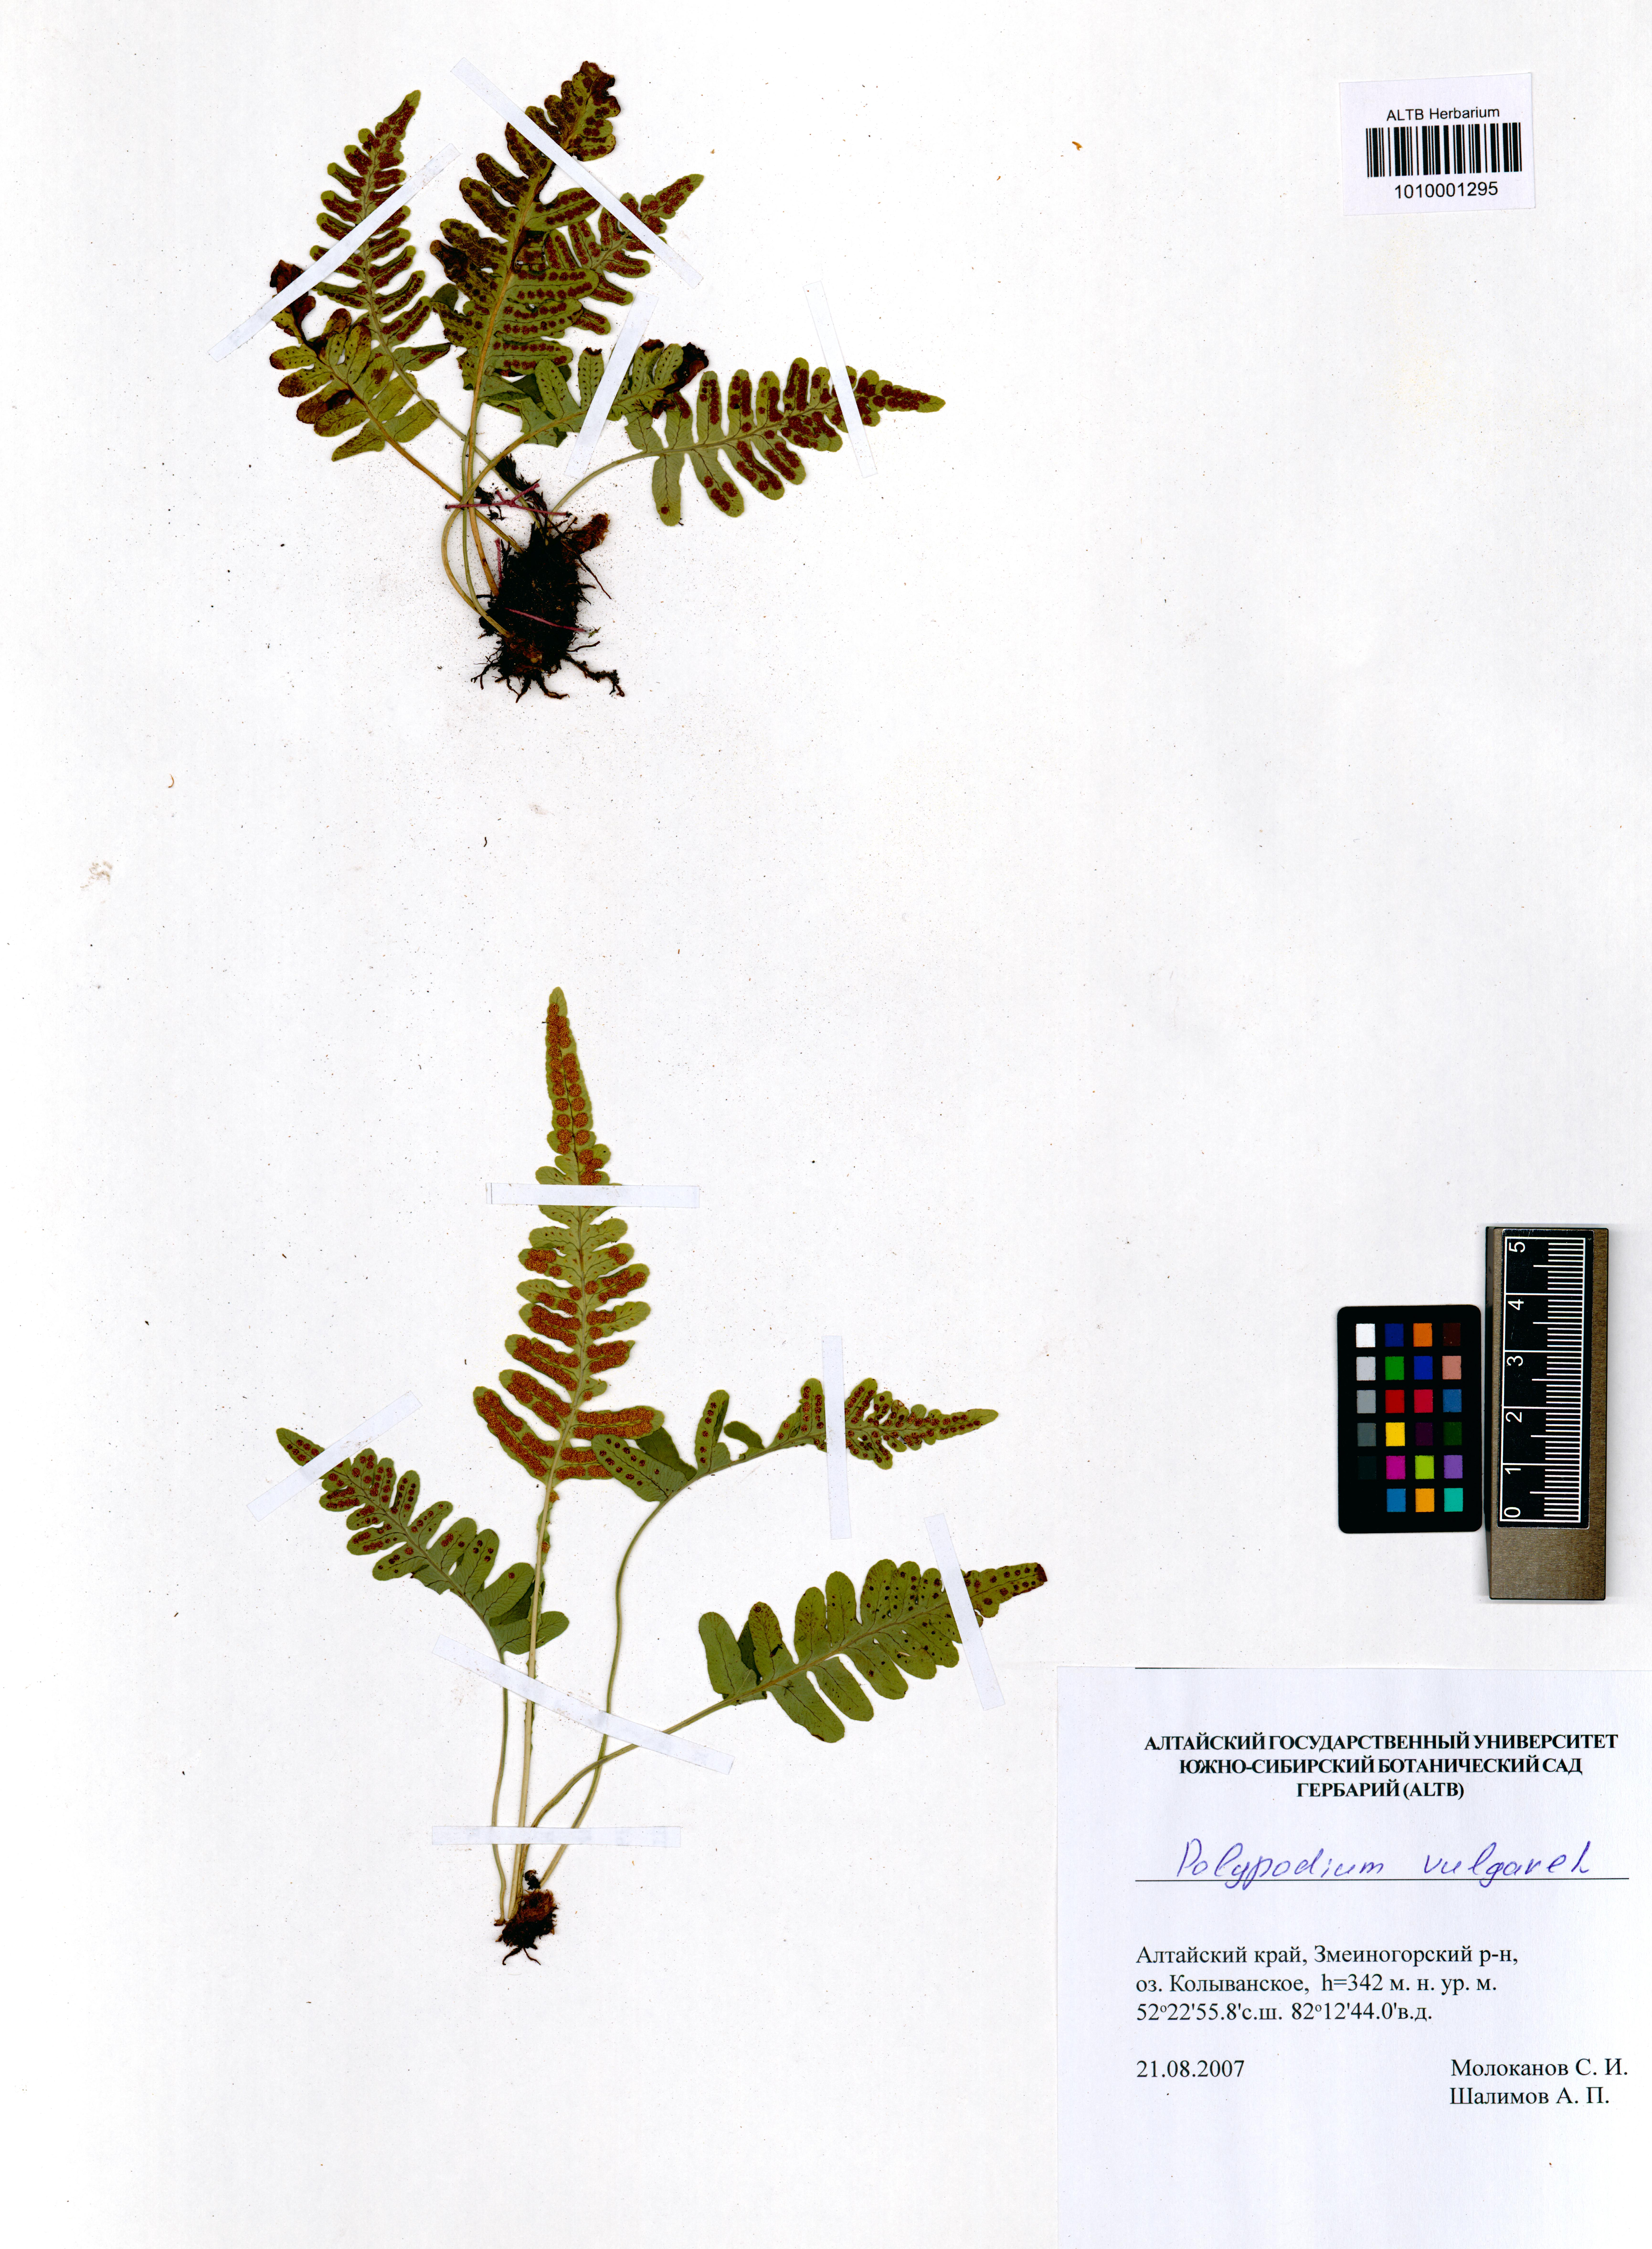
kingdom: Plantae
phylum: Tracheophyta
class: Polypodiopsida
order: Polypodiales
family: Polypodiaceae
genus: Polypodium
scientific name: Polypodium vulgare
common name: Common polypody
